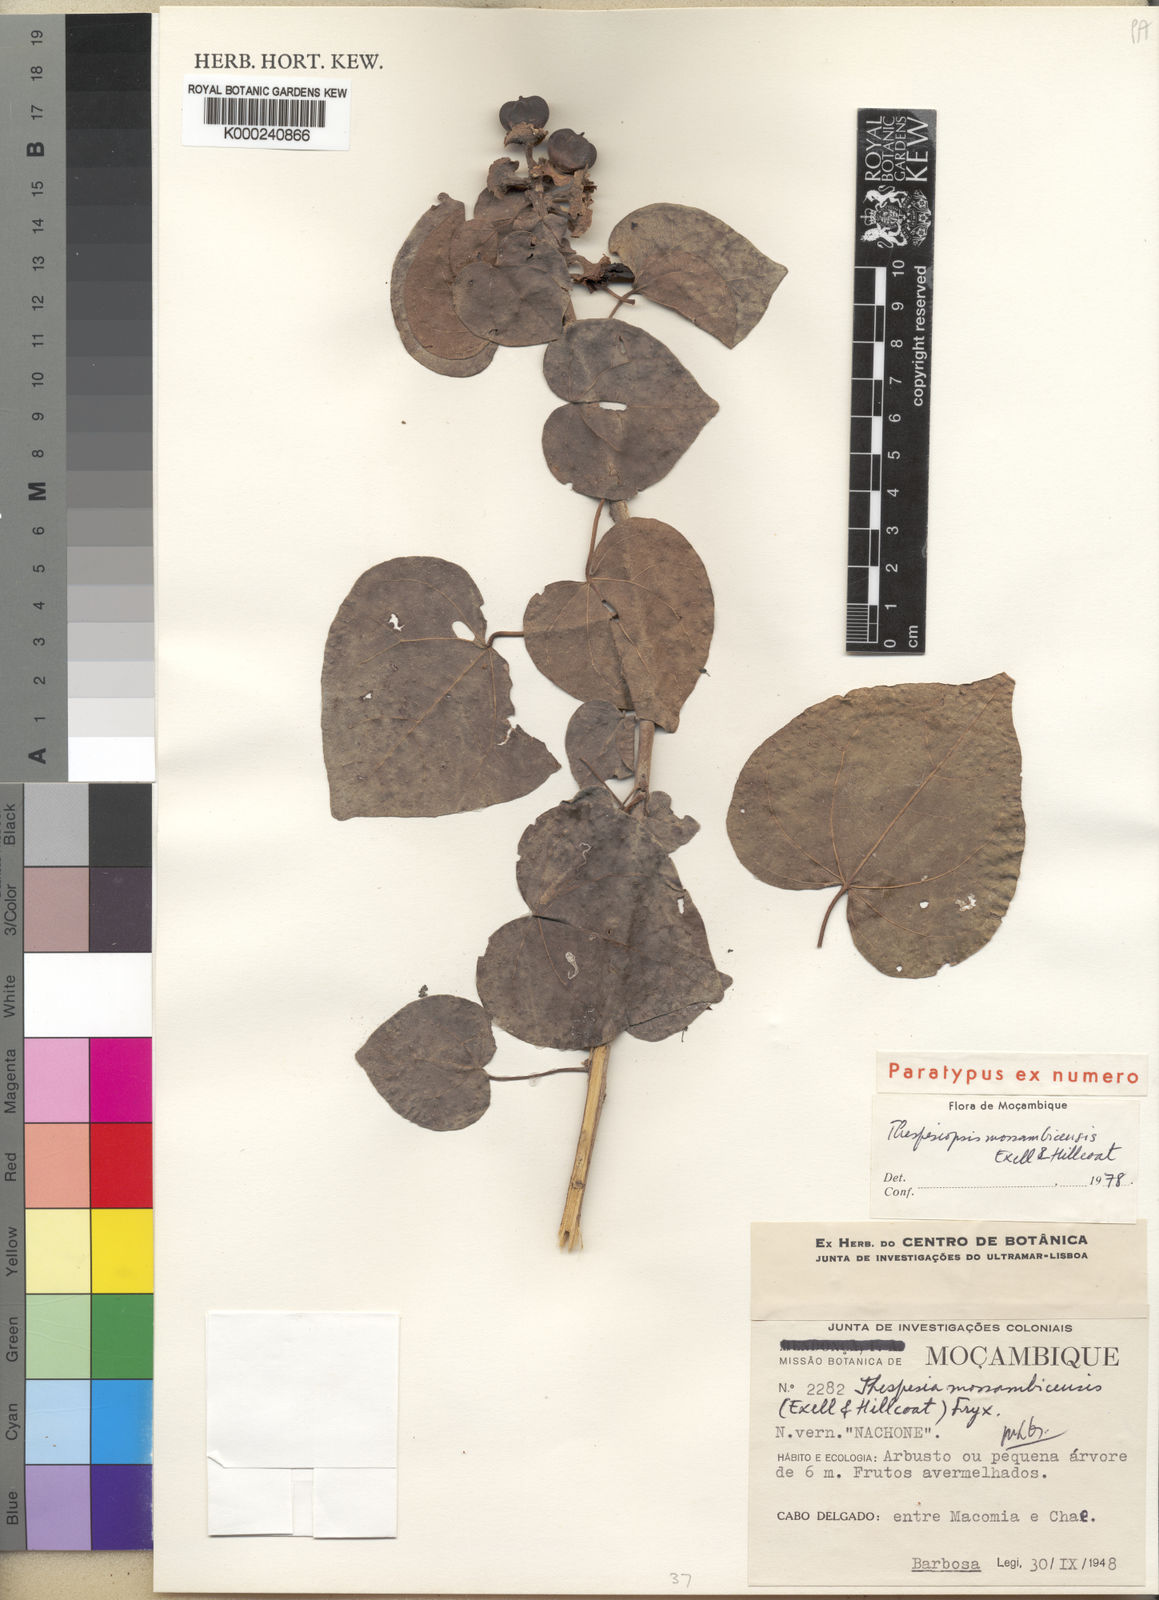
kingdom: Plantae
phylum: Tracheophyta
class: Magnoliopsida
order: Malvales
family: Malvaceae
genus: Thespesia
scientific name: Thespesia mossambicensis
